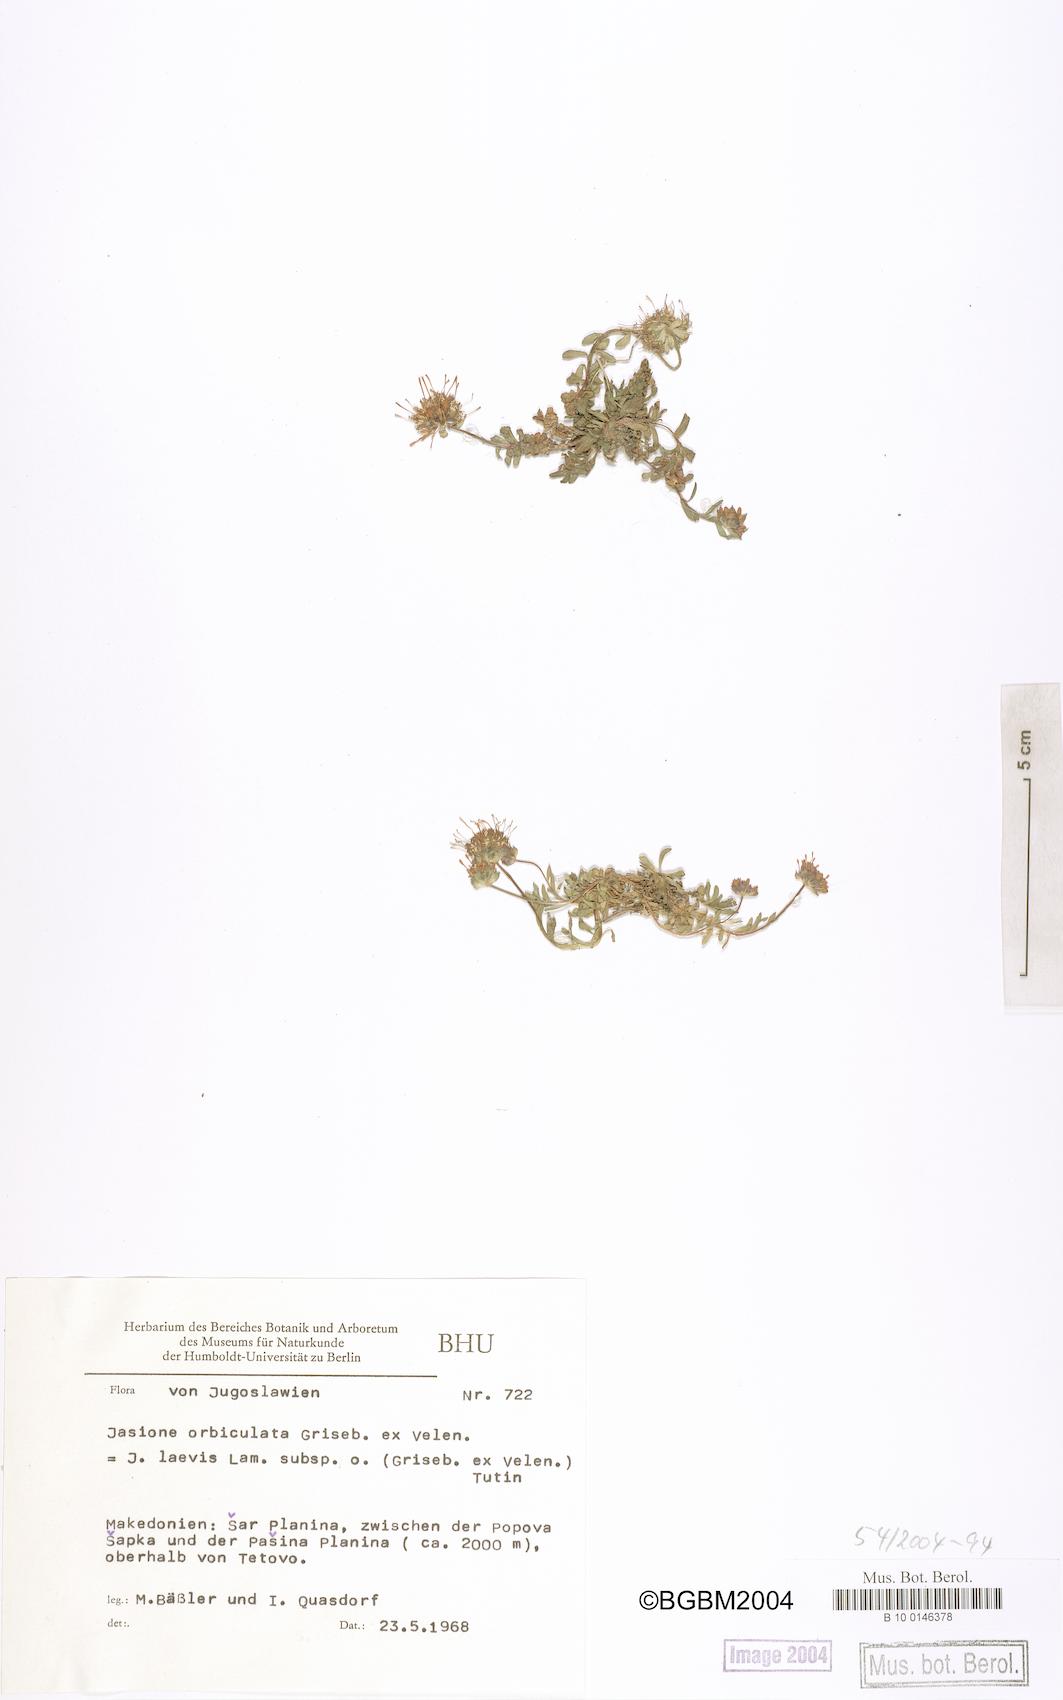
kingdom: Plantae
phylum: Tracheophyta
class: Magnoliopsida
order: Asterales
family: Campanulaceae
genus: Jasione
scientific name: Jasione orbiculata
